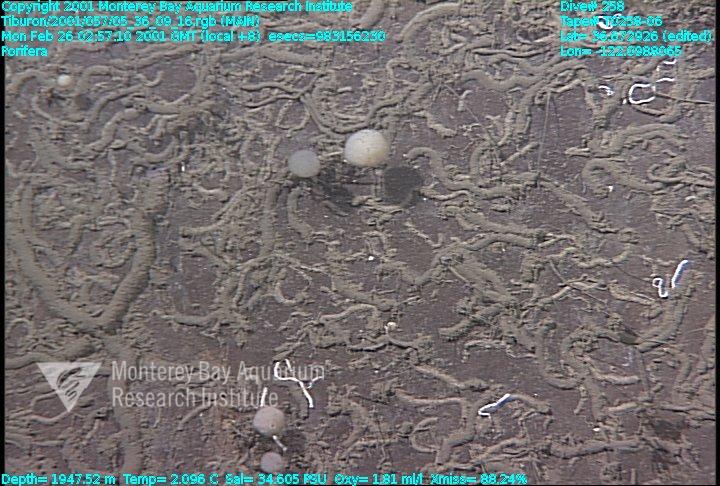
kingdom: Animalia
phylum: Porifera
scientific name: Porifera
